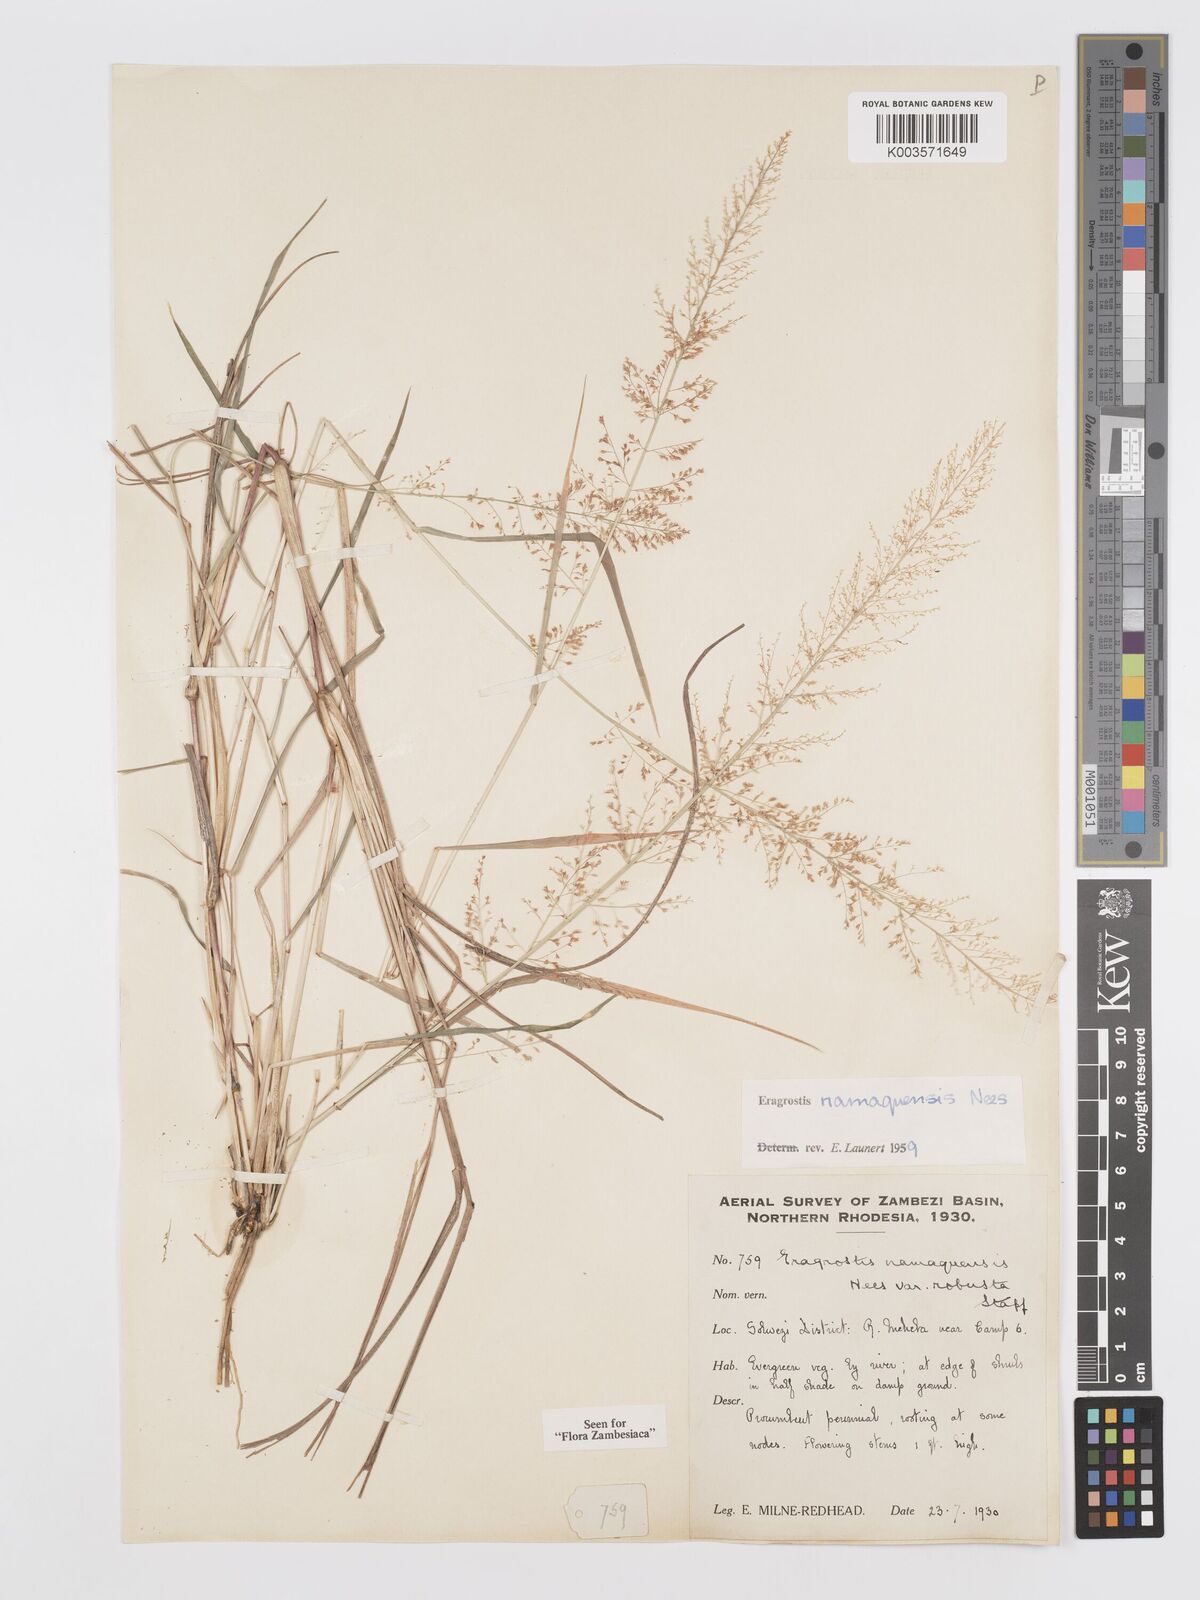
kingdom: Plantae
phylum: Tracheophyta
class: Liliopsida
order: Poales
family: Poaceae
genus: Eragrostis
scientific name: Eragrostis japonica
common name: Pond lovegrass
